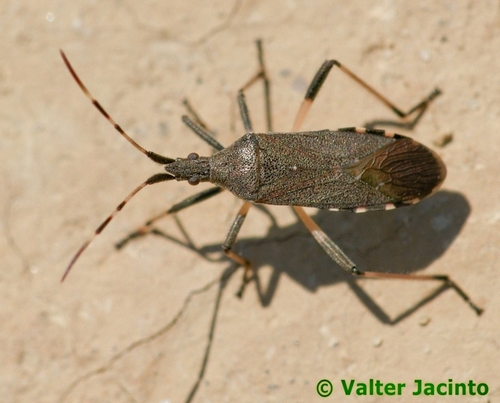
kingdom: Animalia
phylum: Arthropoda
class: Insecta
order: Hemiptera
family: Stenocephalidae
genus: Dicranocephalus
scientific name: Dicranocephalus albipes
